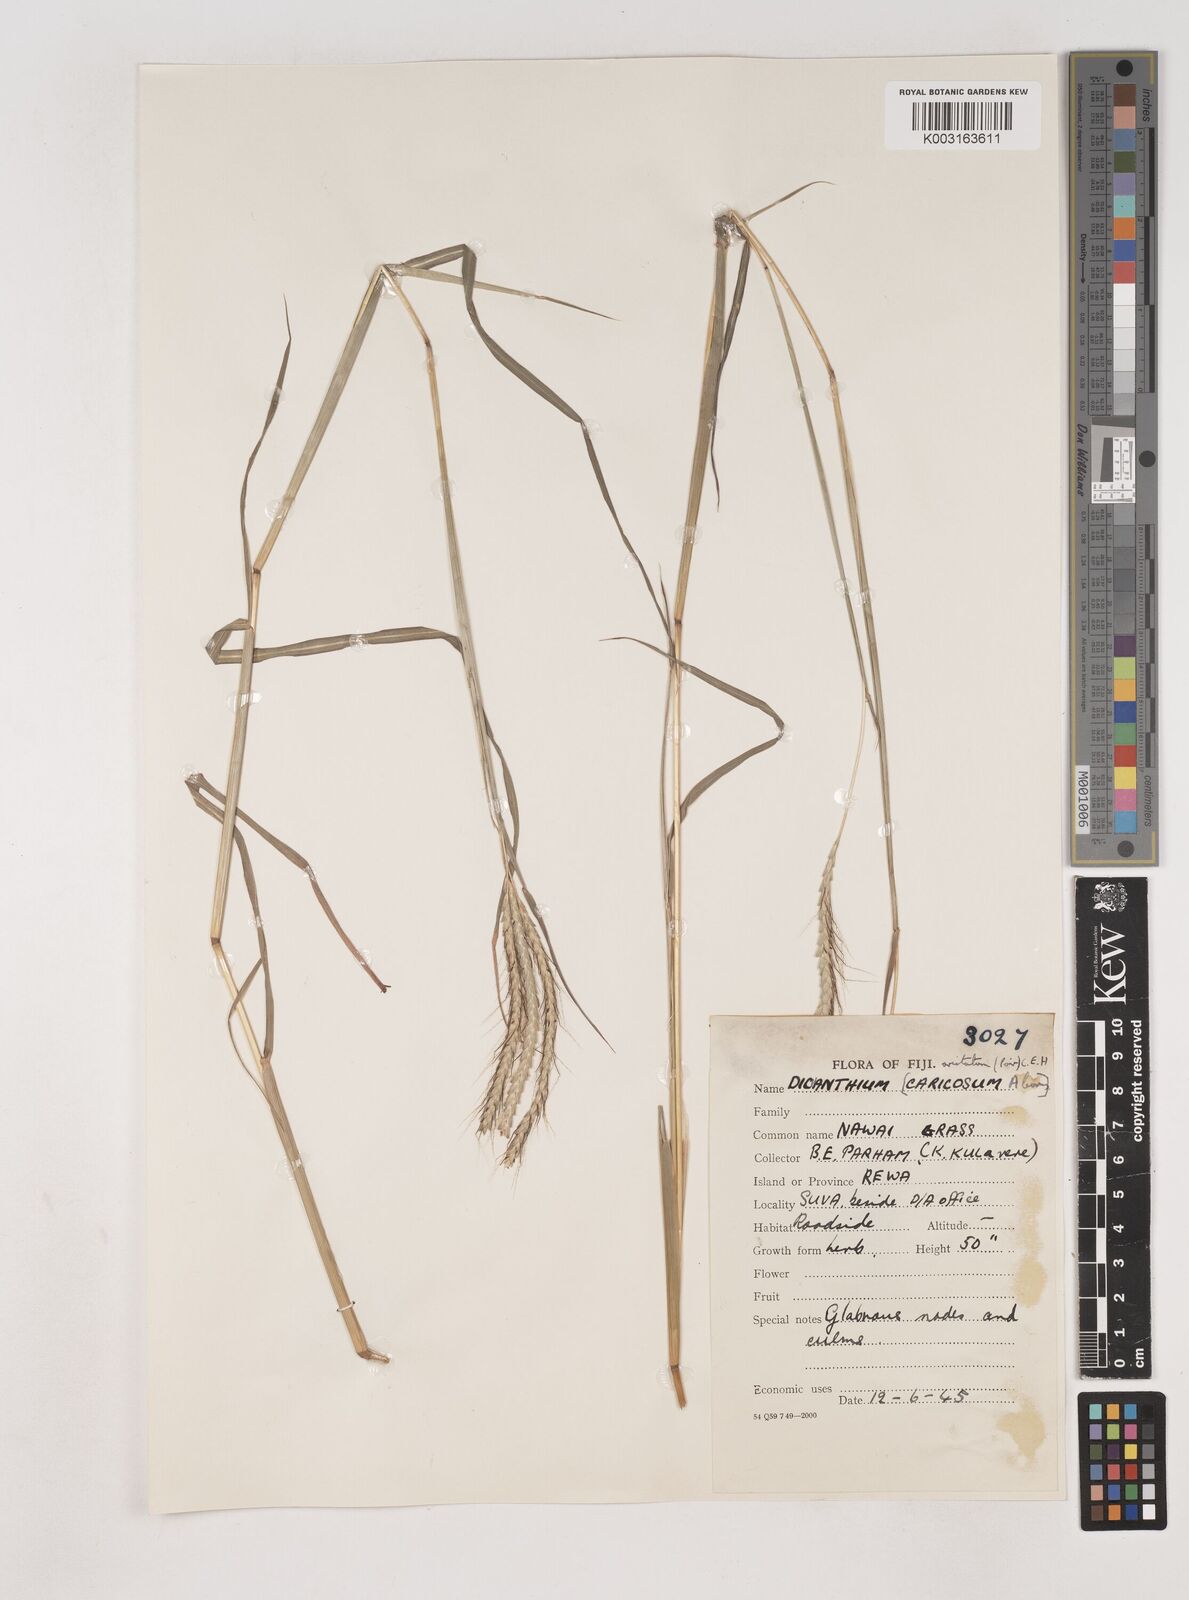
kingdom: Plantae
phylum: Tracheophyta
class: Liliopsida
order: Poales
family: Poaceae
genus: Dichanthium
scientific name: Dichanthium aristatum
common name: Angleton bluestem
